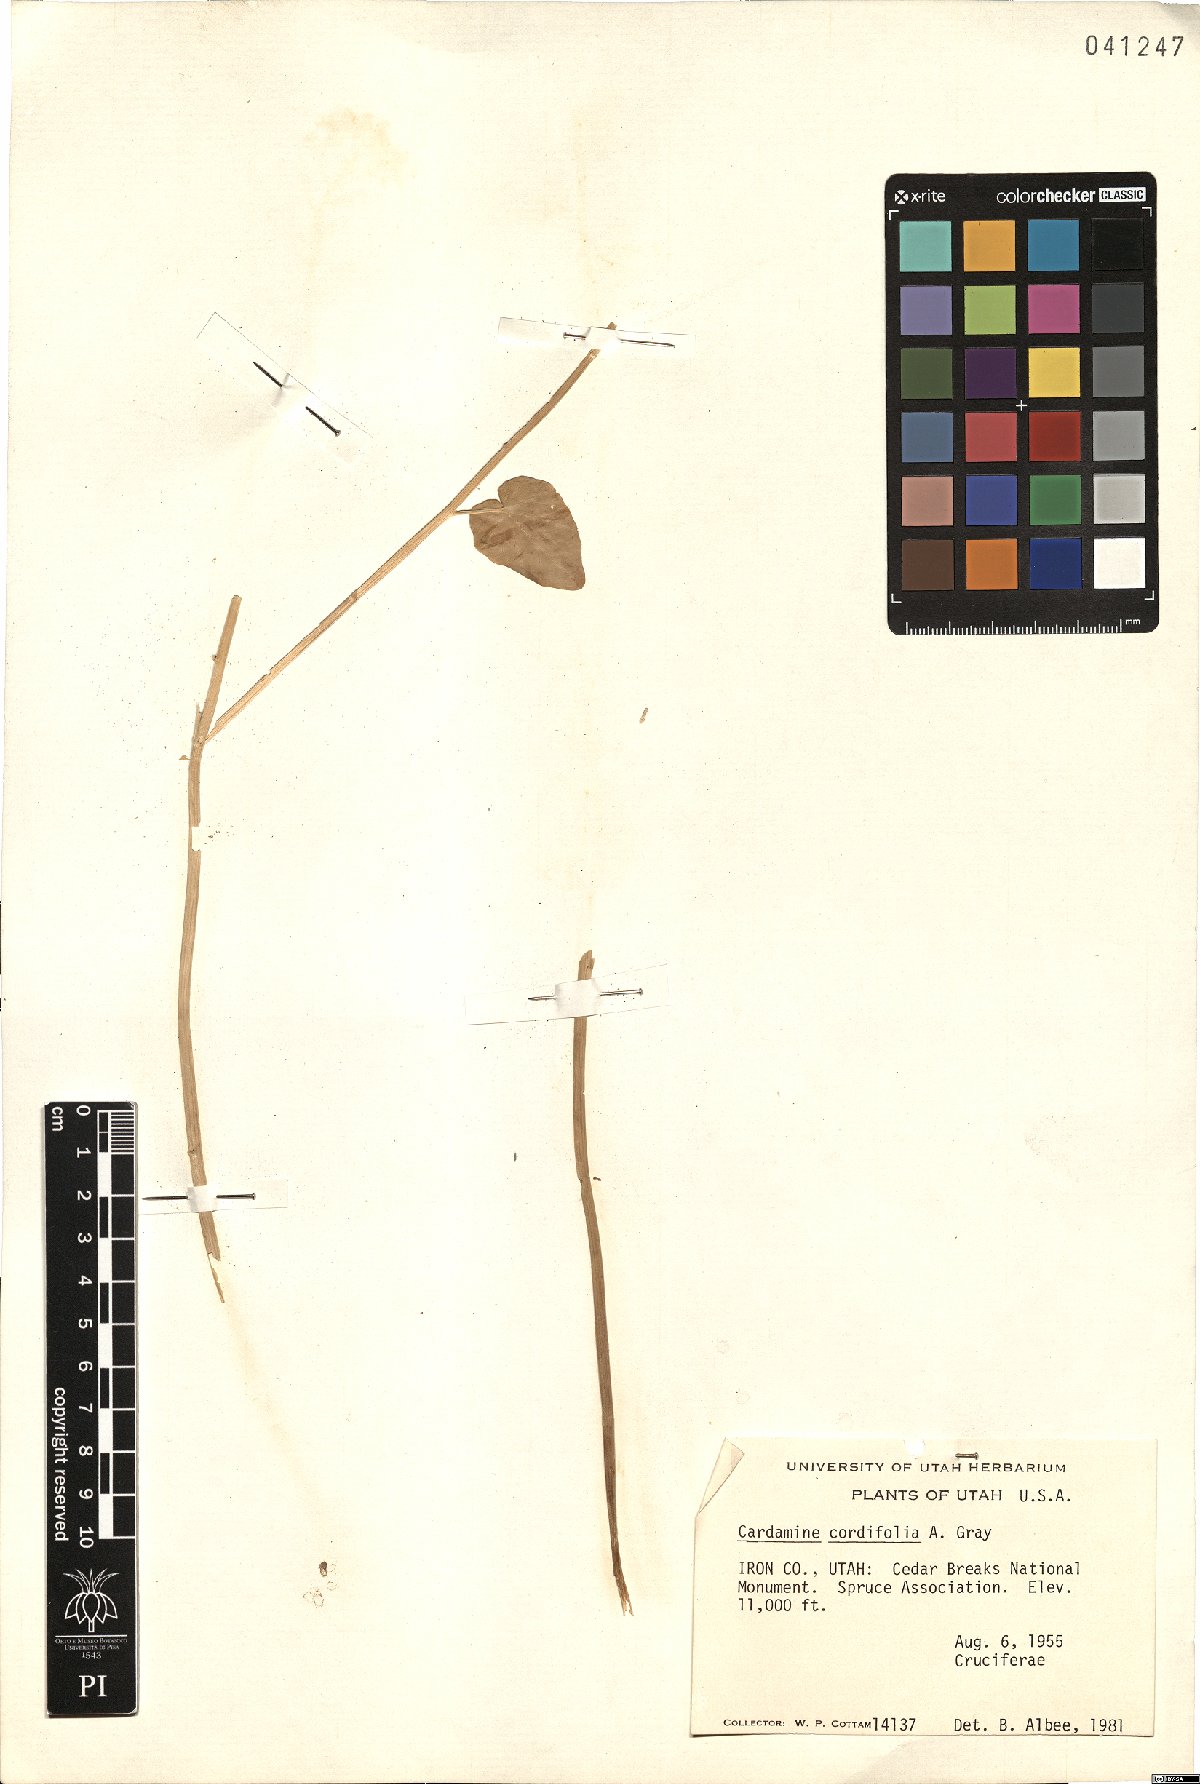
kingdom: Plantae
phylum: Tracheophyta
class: Magnoliopsida
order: Brassicales
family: Brassicaceae
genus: Cardamine
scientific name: Cardamine cordifolia
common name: Heart-leaf bittercress
